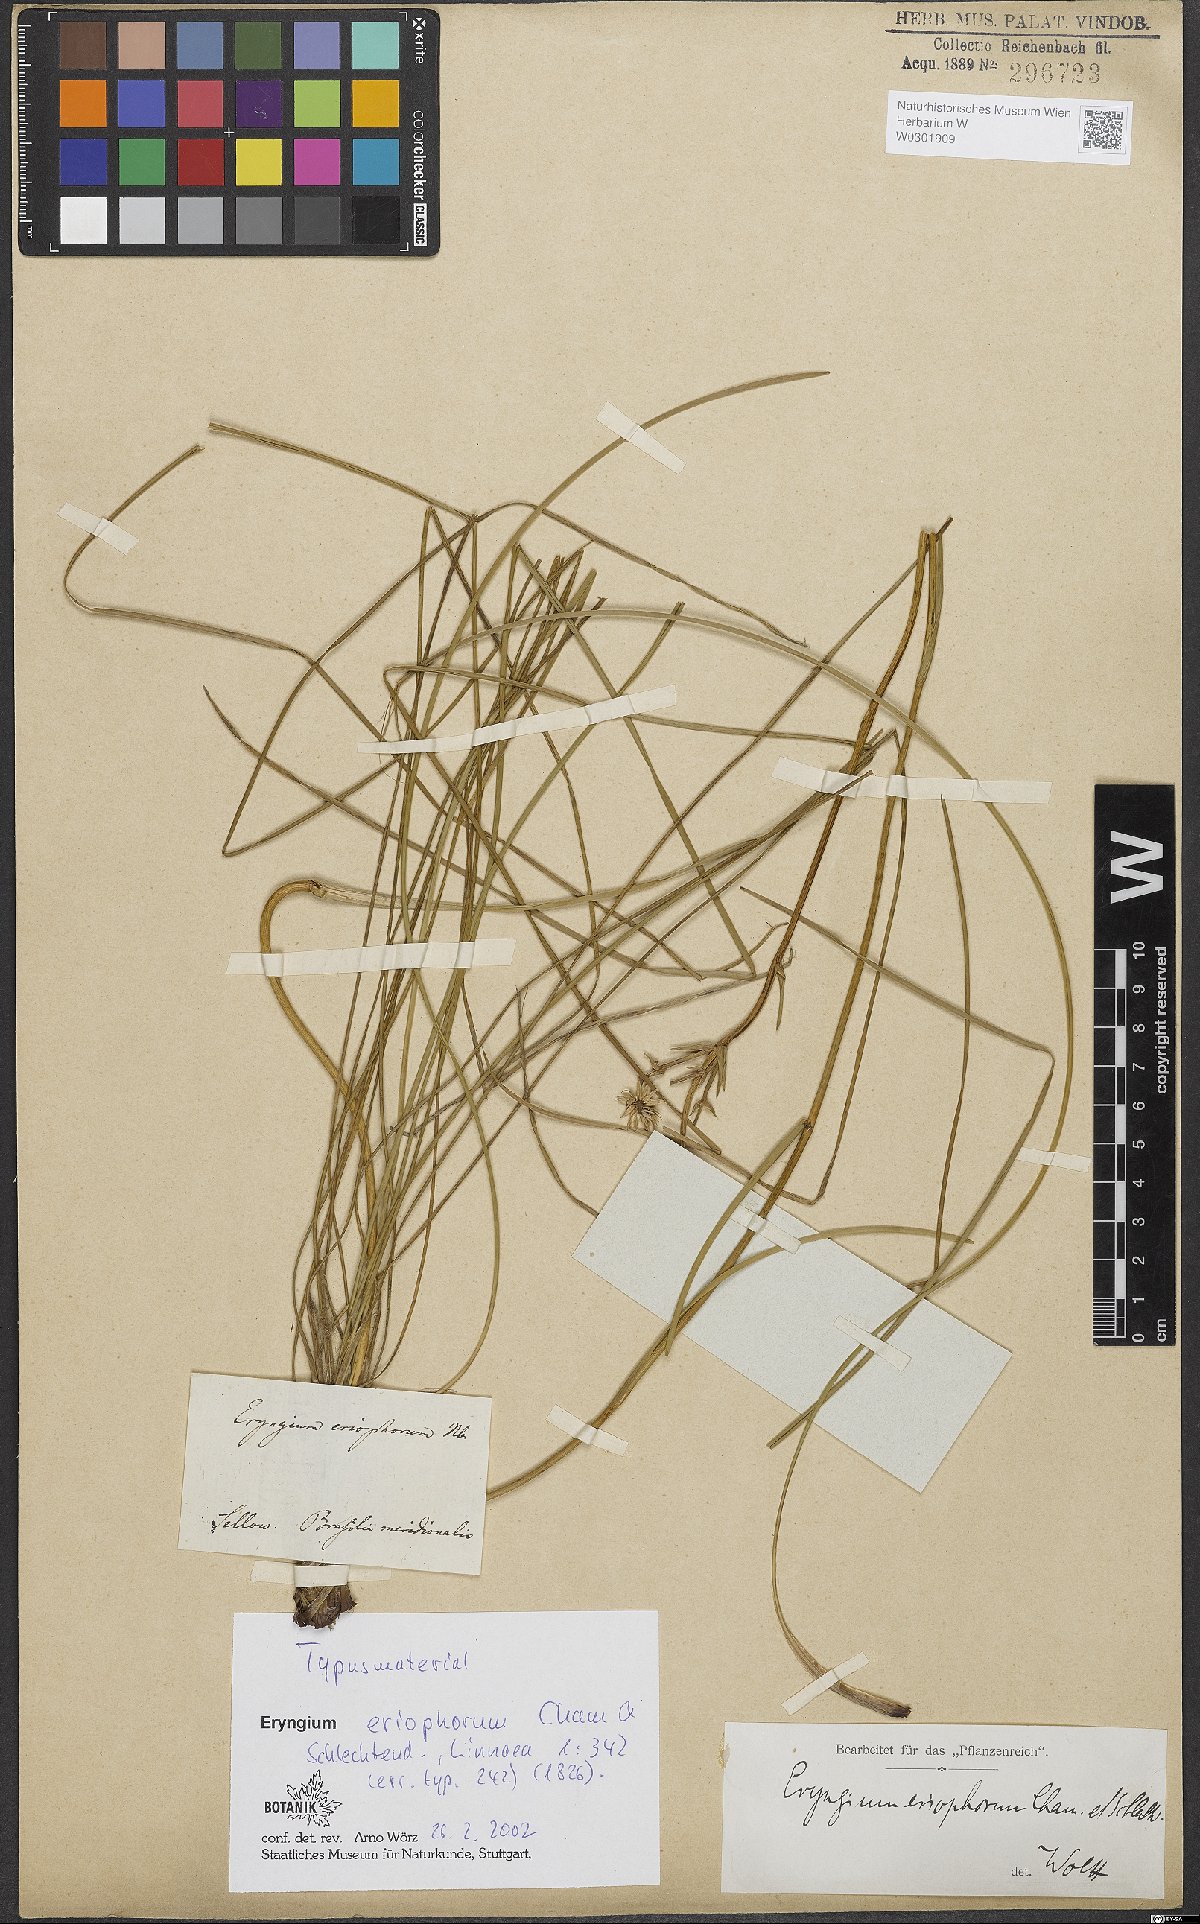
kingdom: Plantae
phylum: Tracheophyta
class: Magnoliopsida
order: Apiales
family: Apiaceae
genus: Eryngium
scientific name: Eryngium eriophorum
